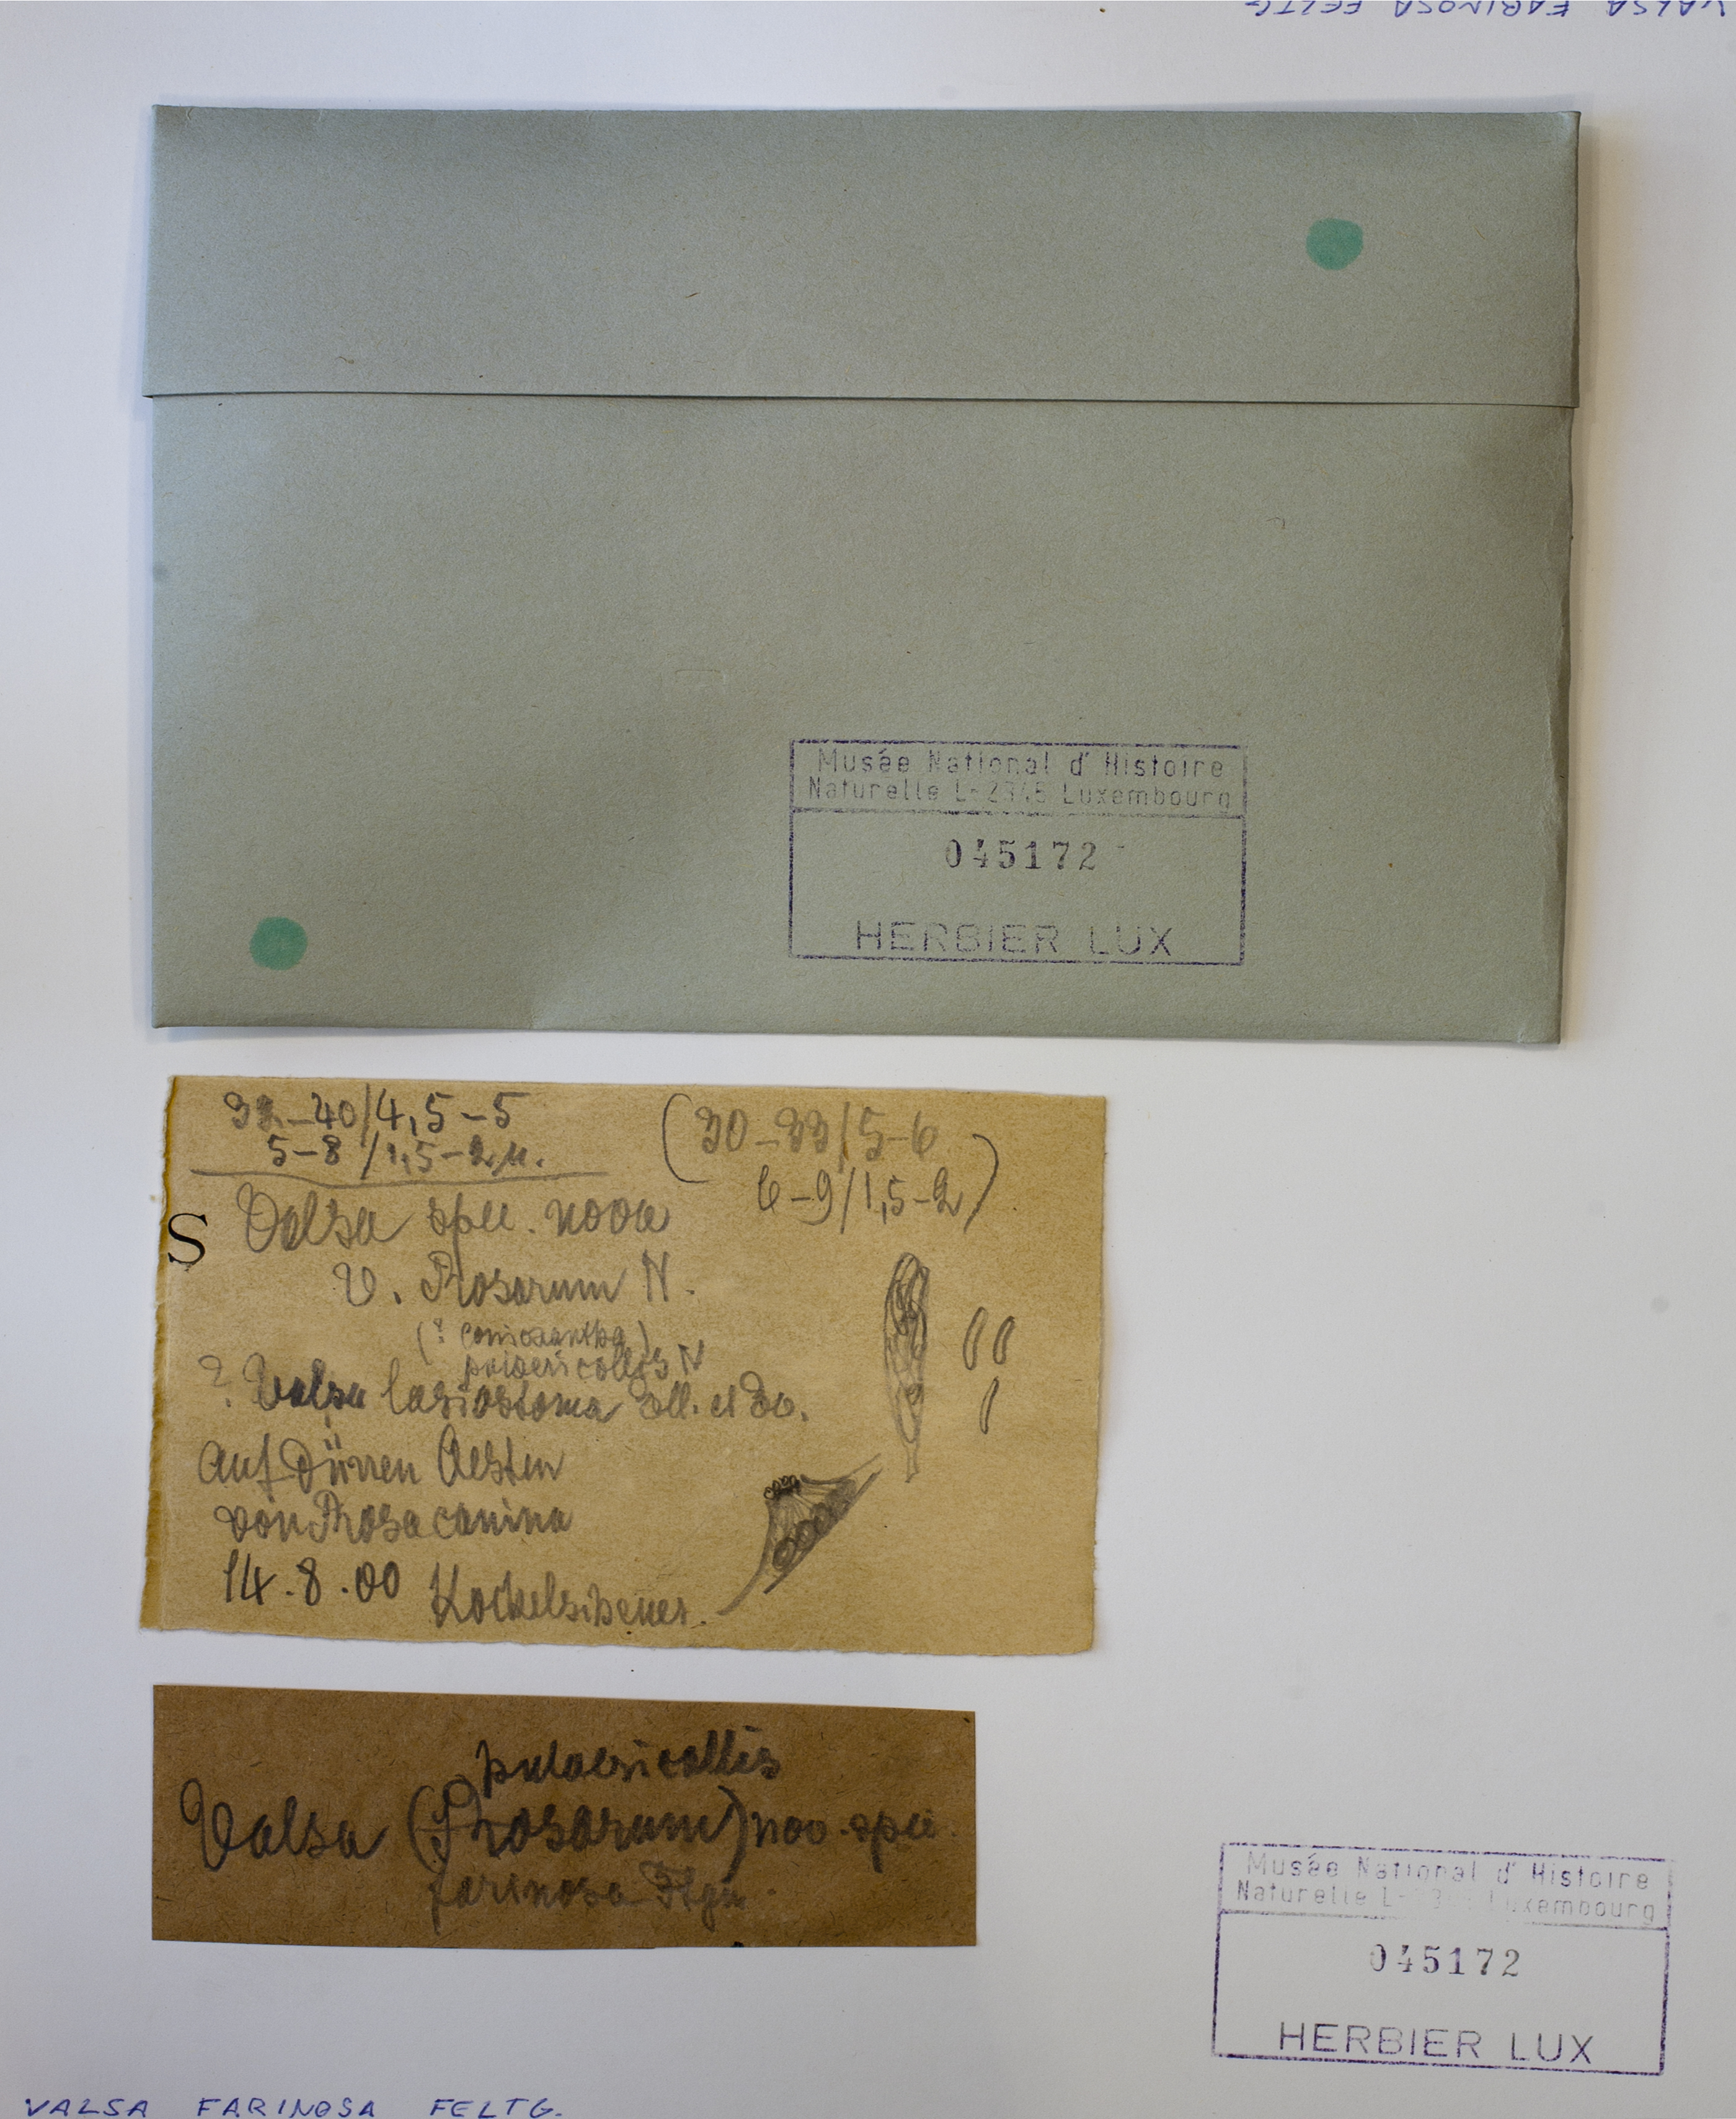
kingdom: Fungi
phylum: Ascomycota
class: Sordariomycetes
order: Diaporthales
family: Harknessiaceae
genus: Harknessia
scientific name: Harknessia farinosa
